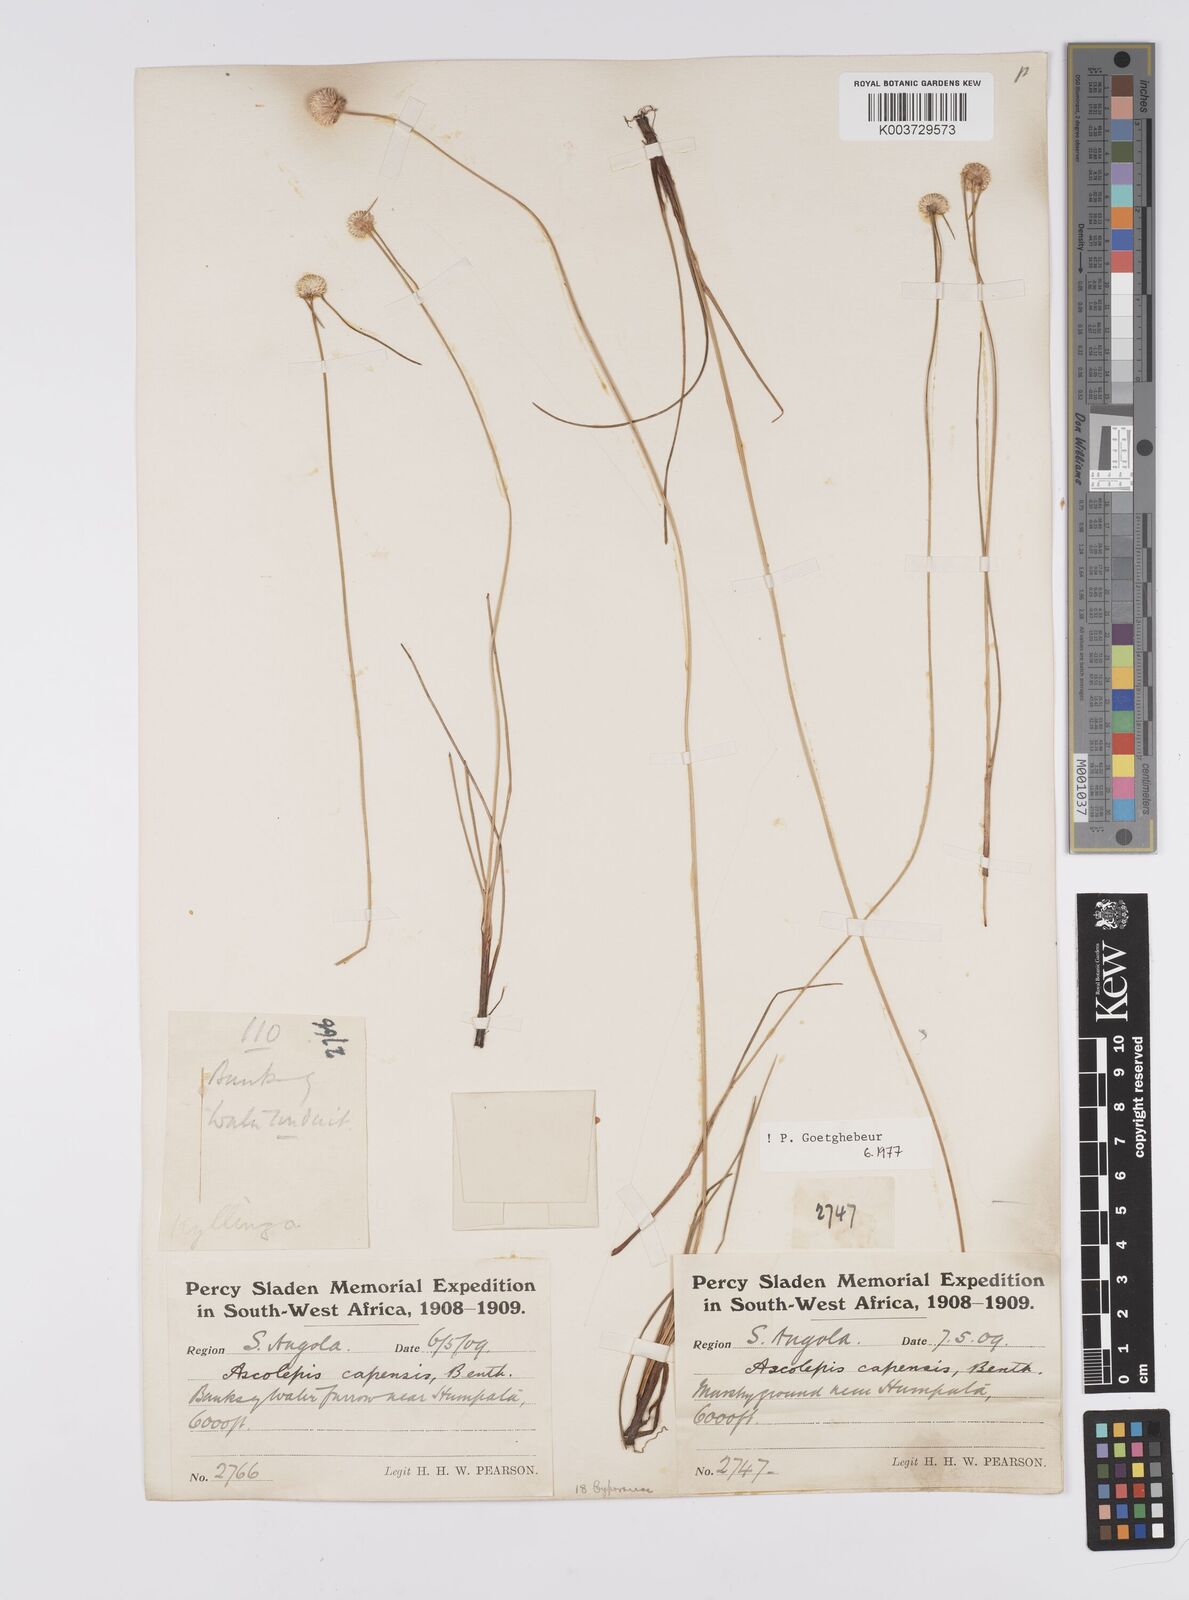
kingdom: Plantae
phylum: Tracheophyta
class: Liliopsida
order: Poales
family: Cyperaceae
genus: Cyperus
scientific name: Cyperus
